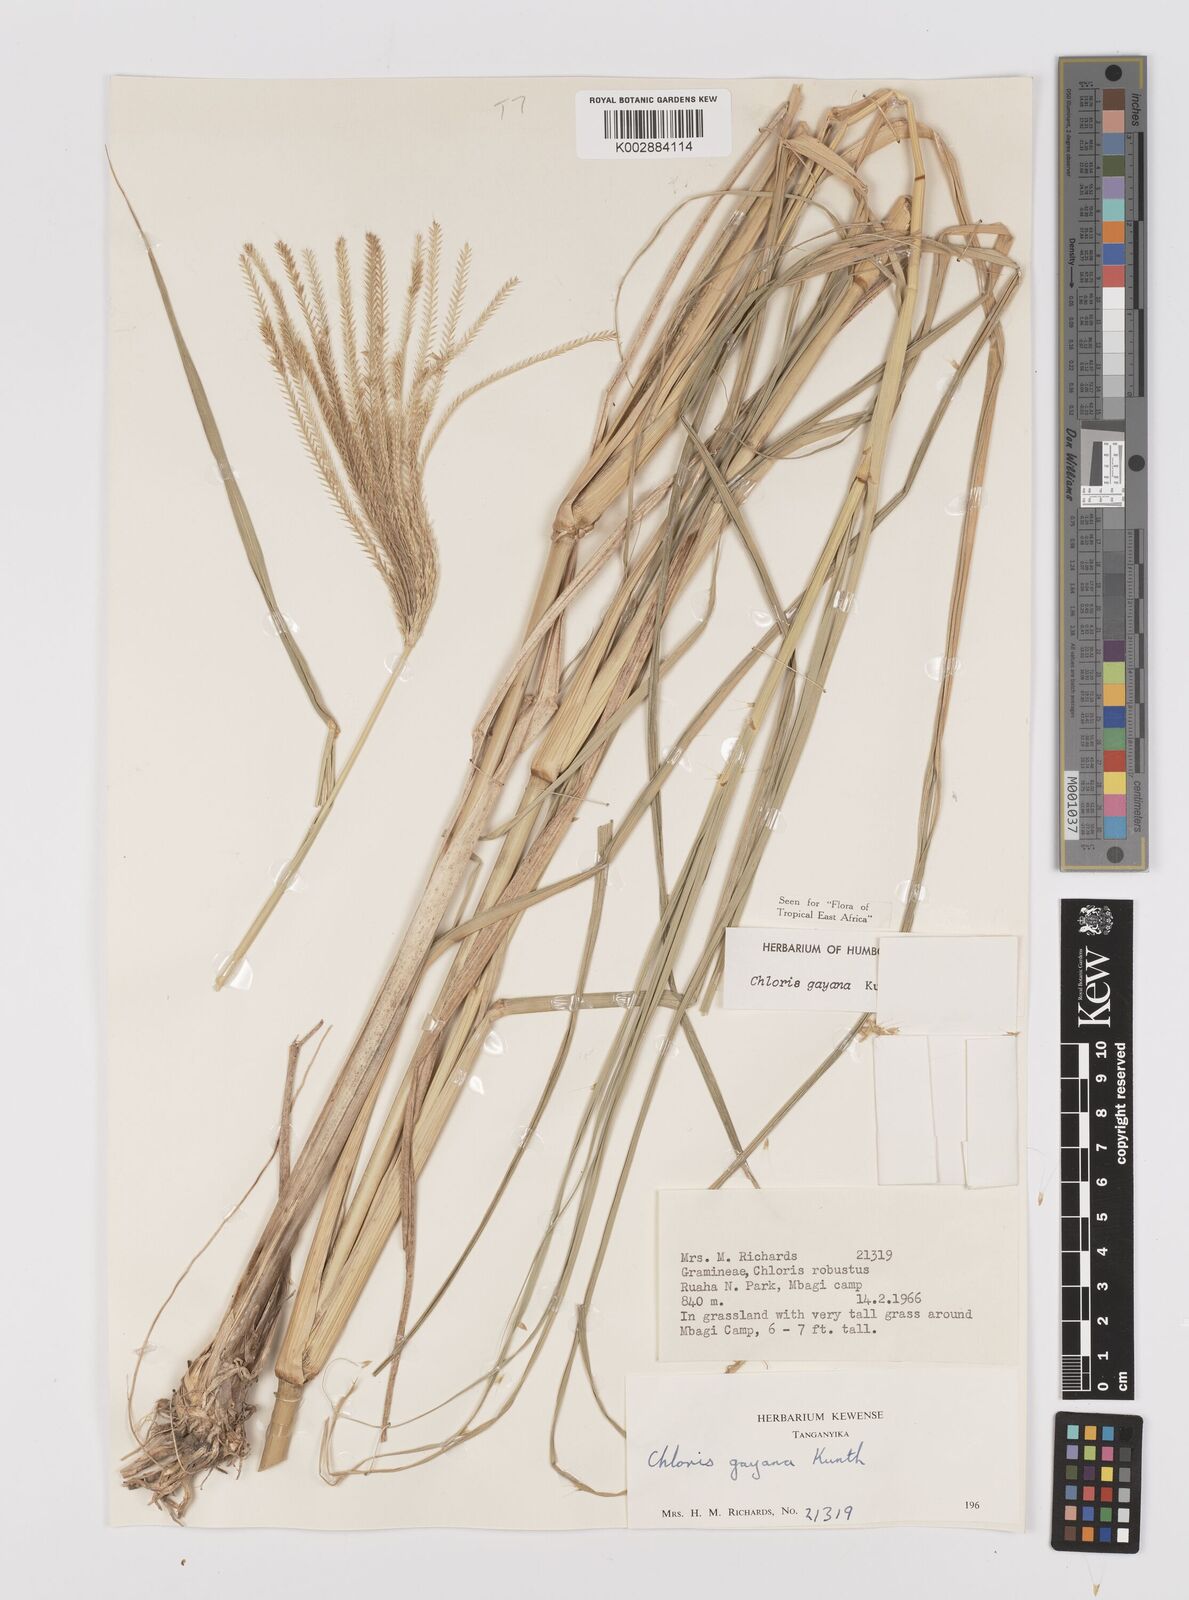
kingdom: Plantae
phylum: Tracheophyta
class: Liliopsida
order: Poales
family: Poaceae
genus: Chloris
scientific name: Chloris gayana
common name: Rhodes grass
